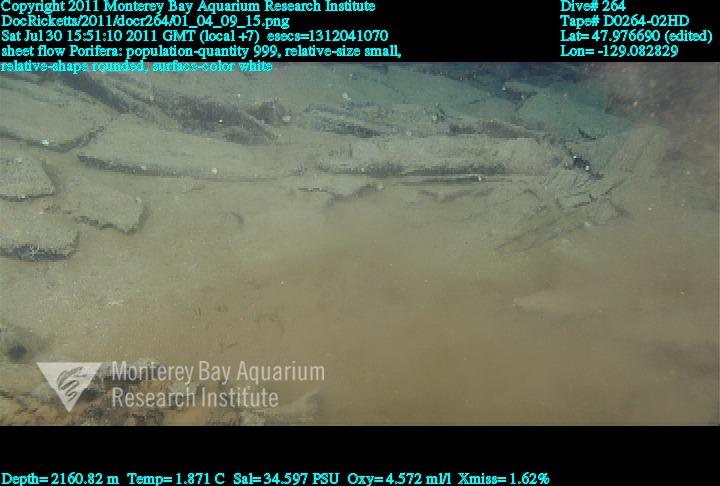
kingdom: Animalia
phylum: Porifera
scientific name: Porifera
